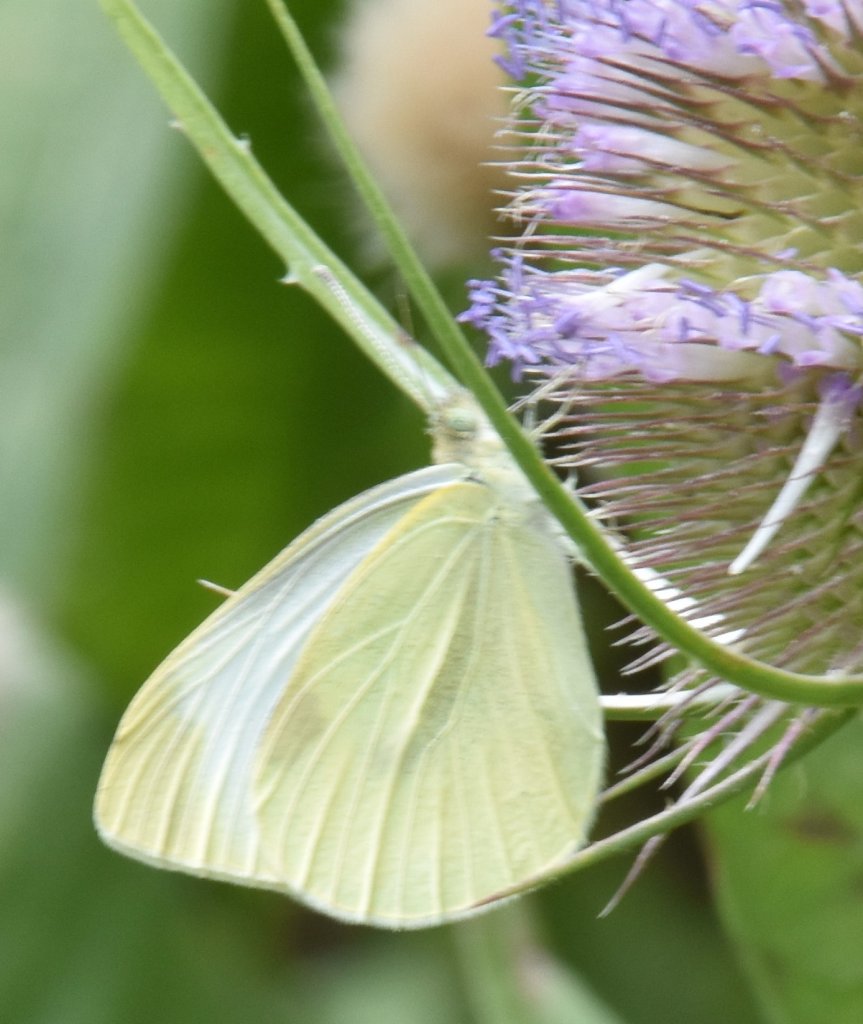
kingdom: Animalia
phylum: Arthropoda
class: Insecta
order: Lepidoptera
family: Pieridae
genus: Pieris
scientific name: Pieris rapae
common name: Cabbage White
